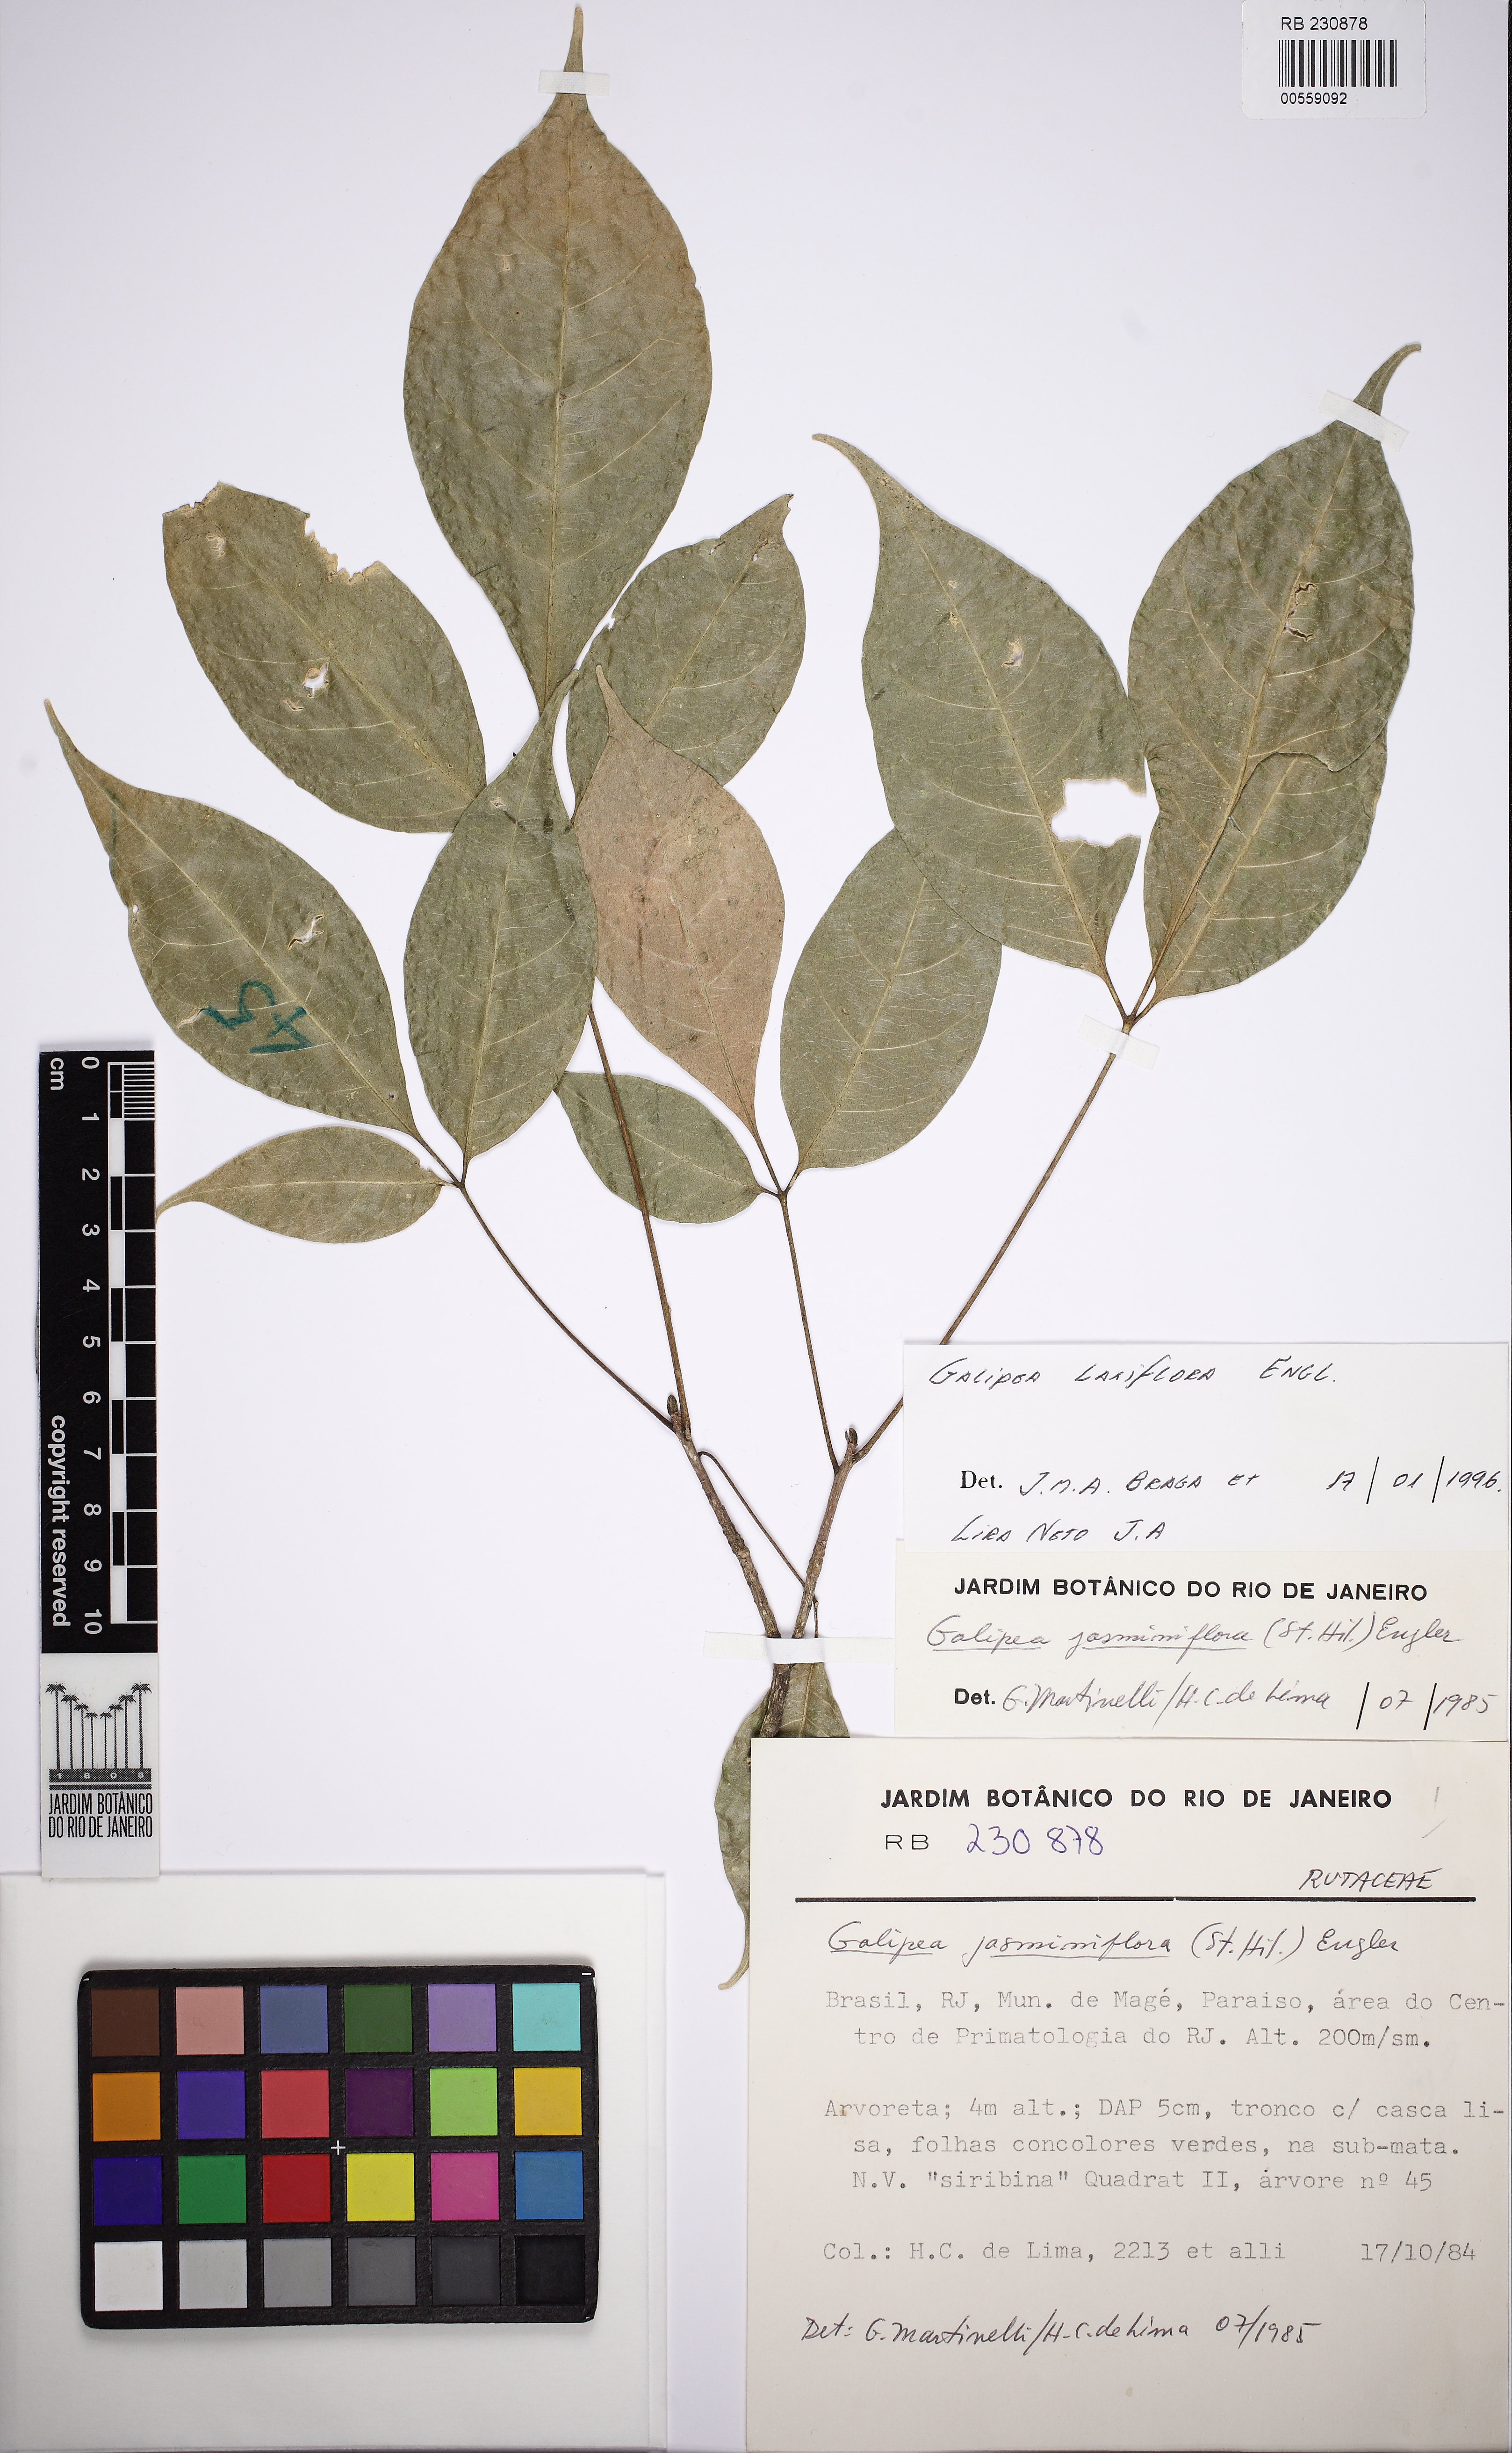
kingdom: Plantae
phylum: Tracheophyta
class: Magnoliopsida
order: Sapindales
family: Rutaceae
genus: Galipea
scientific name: Galipea laxiflora
